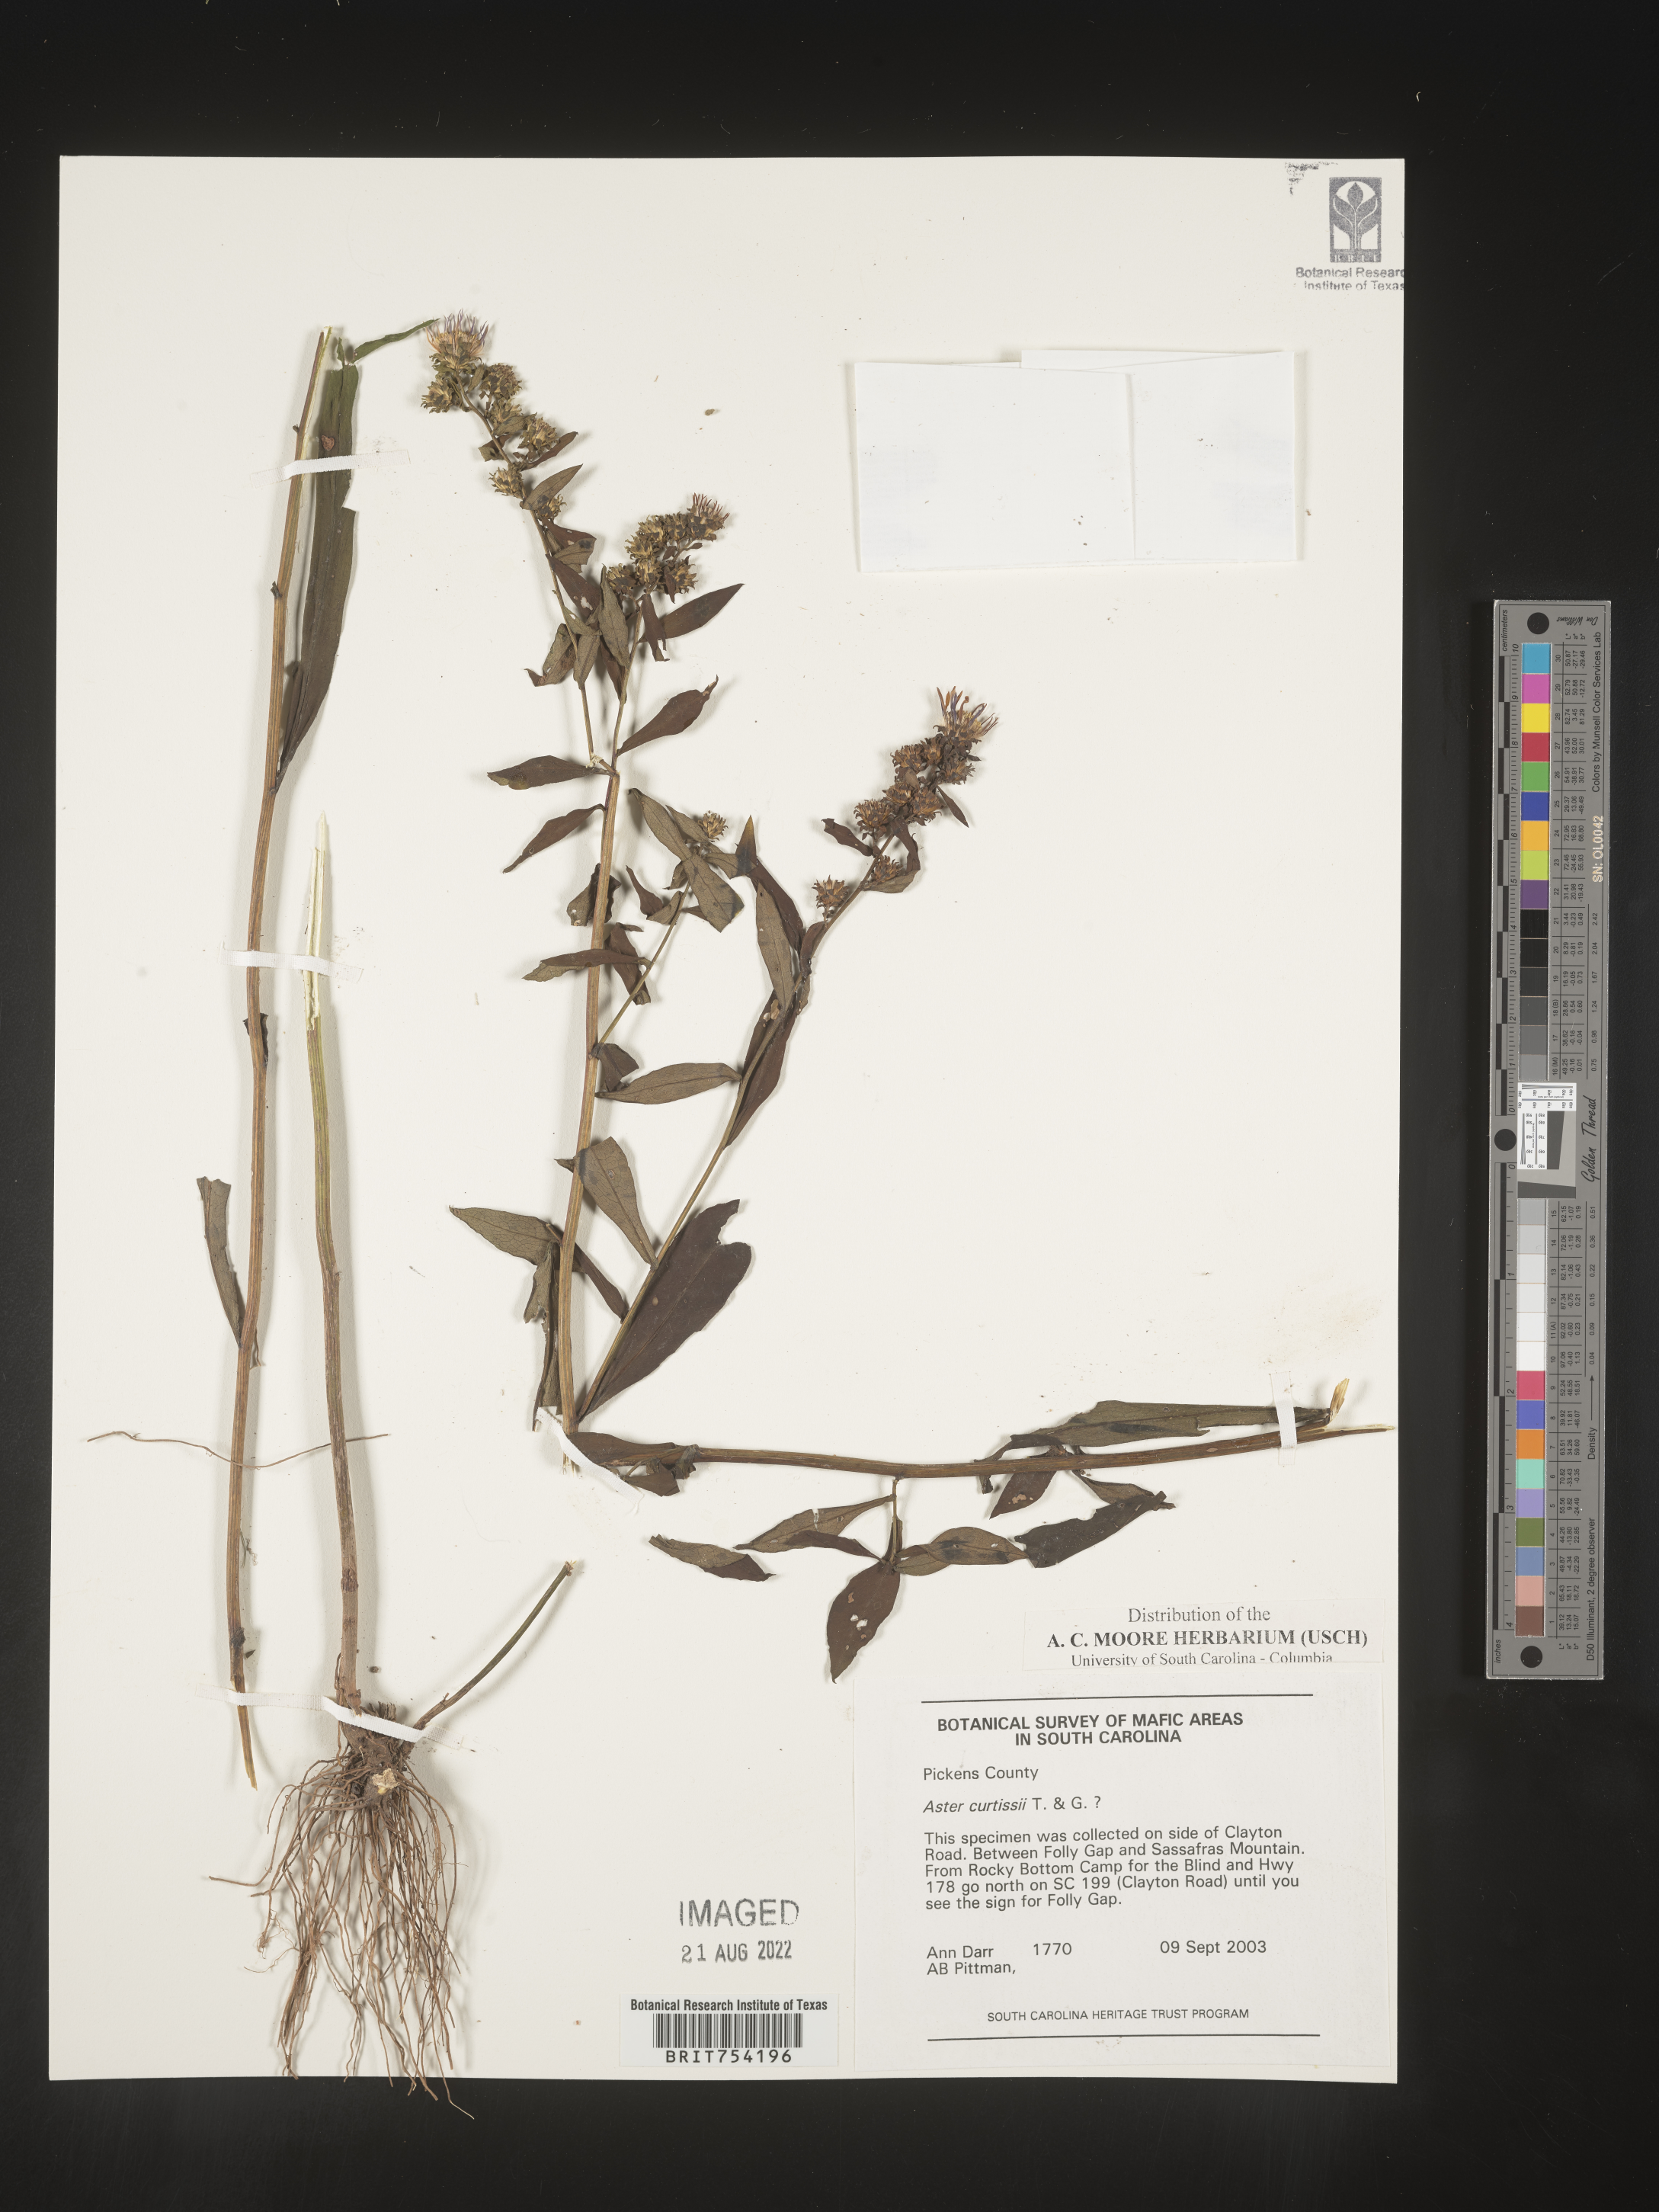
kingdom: Plantae
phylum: Tracheophyta
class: Magnoliopsida
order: Asterales
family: Asteraceae
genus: Symphyotrichum
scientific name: Symphyotrichum retroflexum
